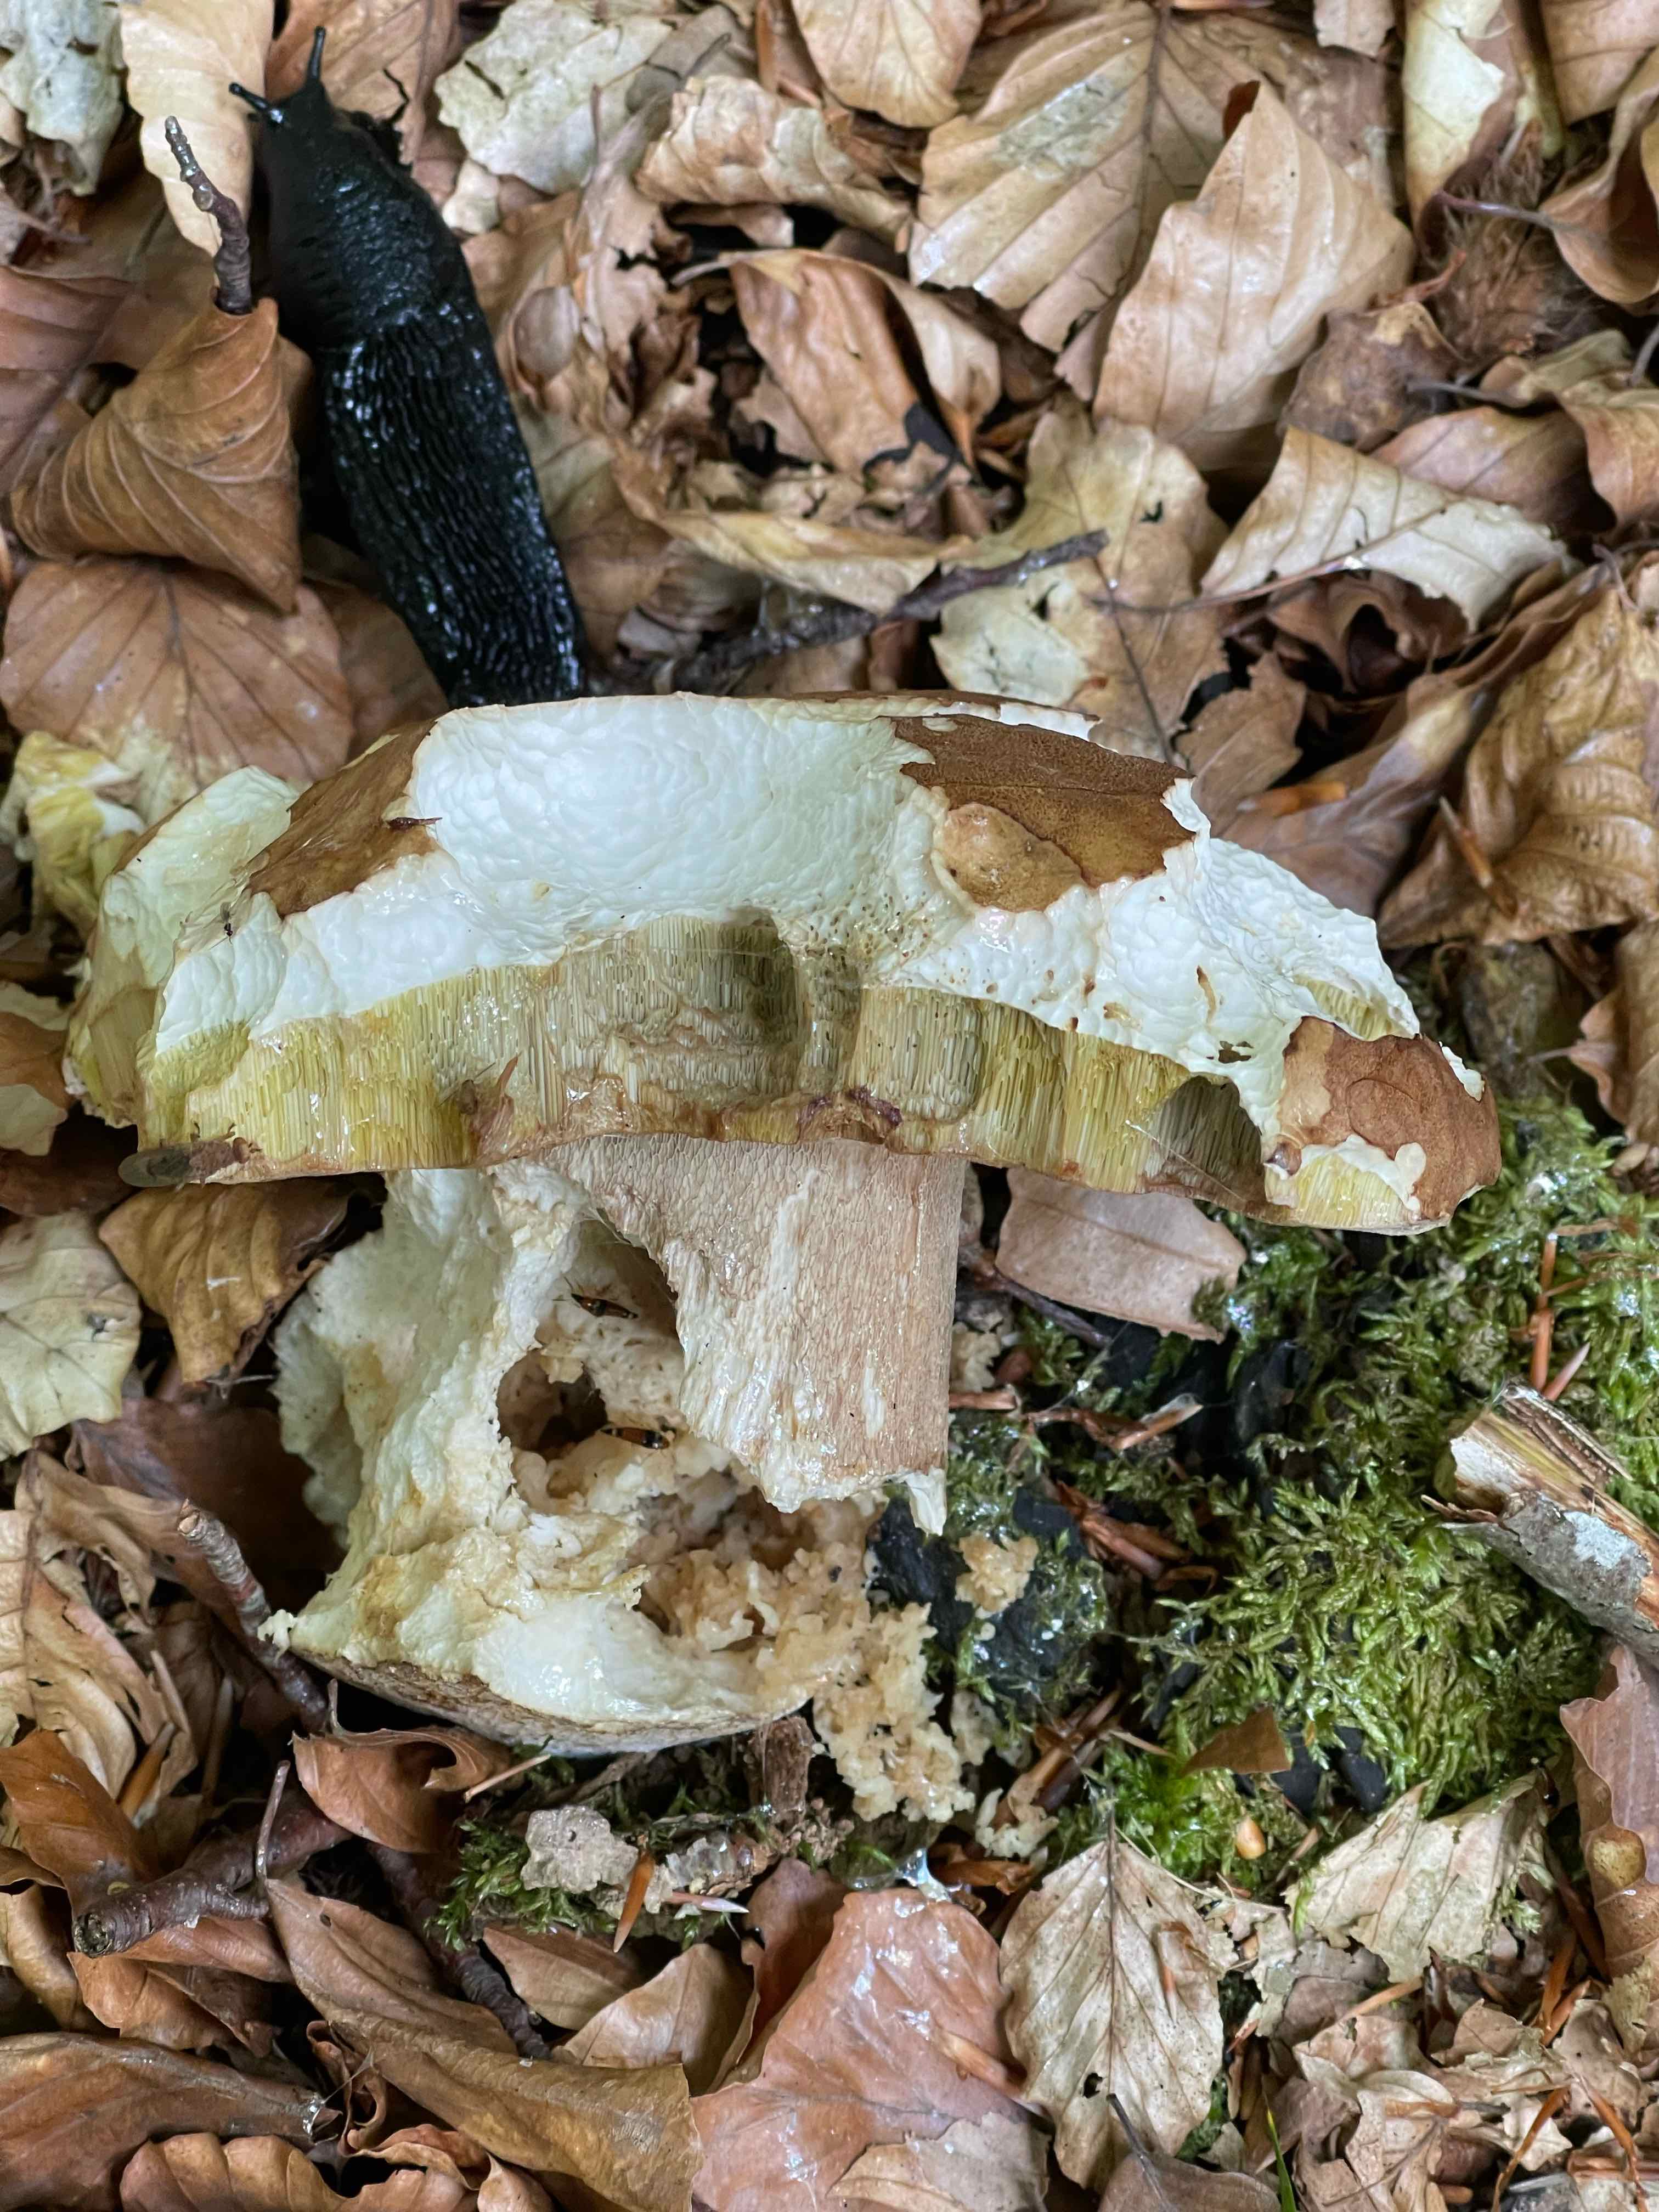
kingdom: Fungi
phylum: Basidiomycota
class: Agaricomycetes
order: Boletales
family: Boletaceae
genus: Boletus
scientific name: Boletus reticulatus
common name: sommer-rørhat
